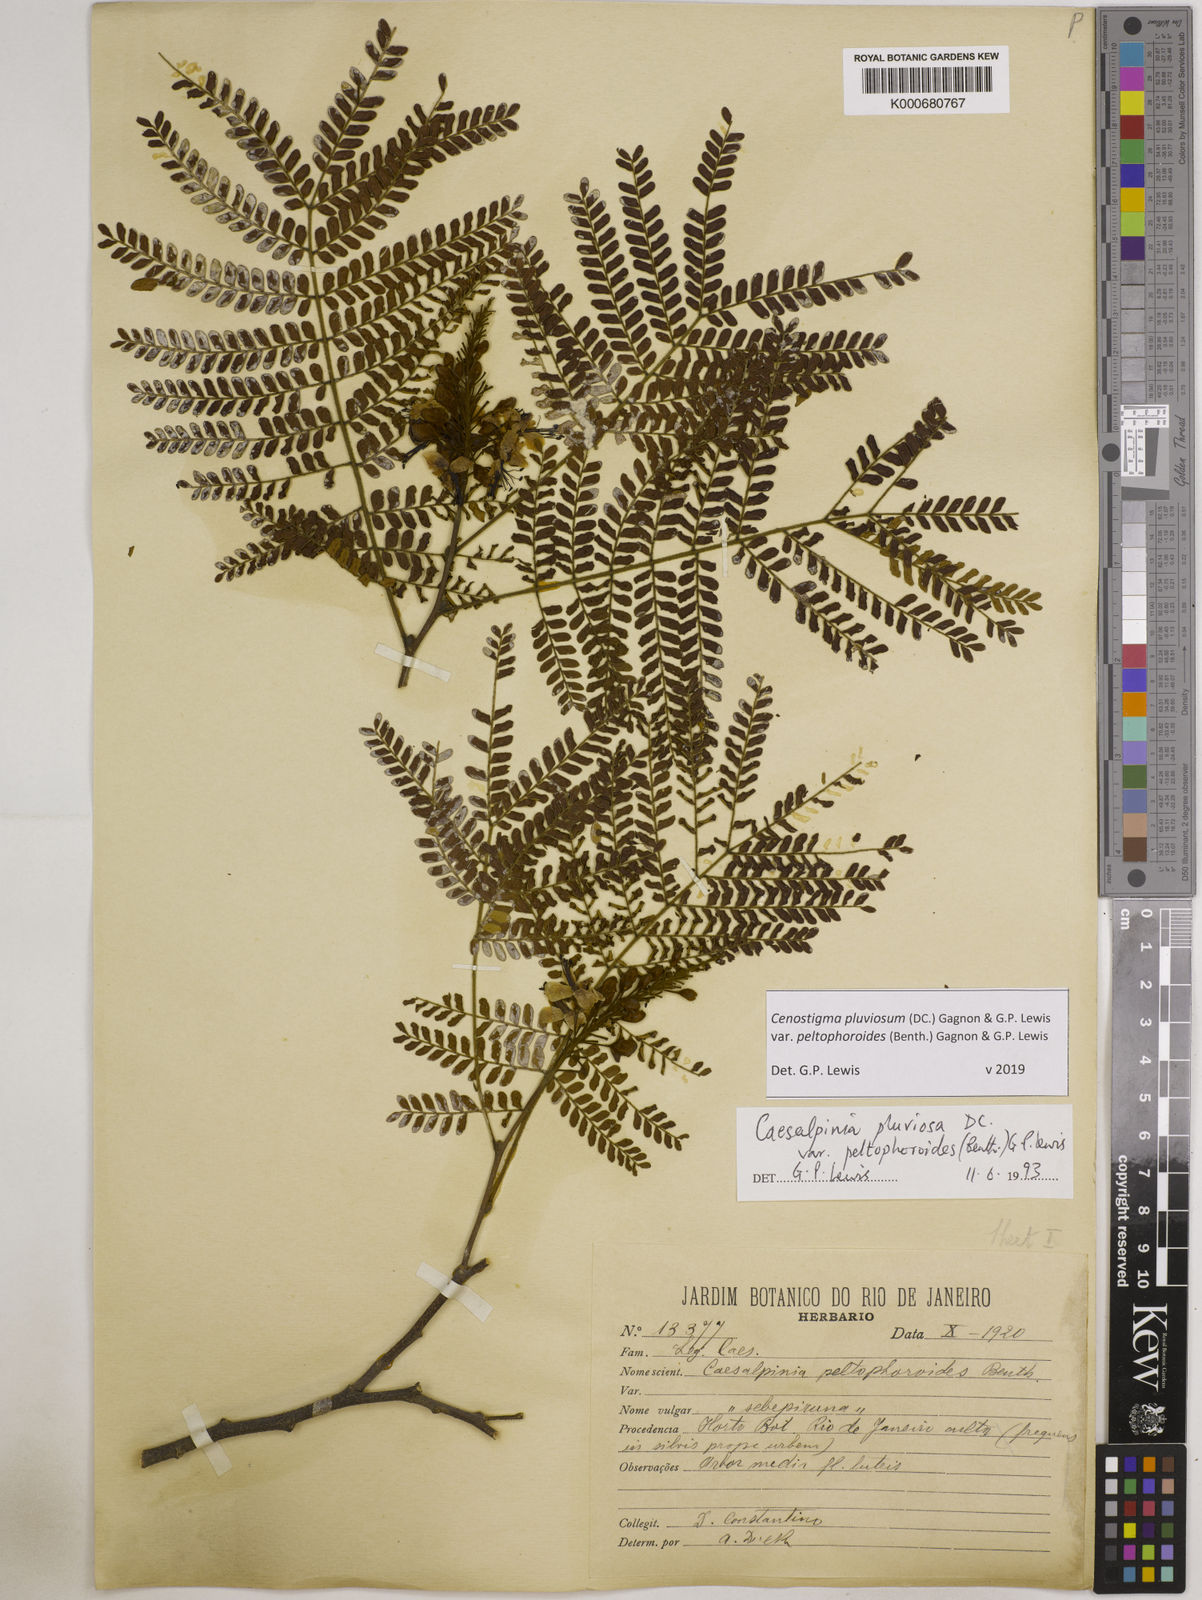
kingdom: Plantae
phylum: Tracheophyta
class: Magnoliopsida
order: Fabales
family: Fabaceae
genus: Cenostigma
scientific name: Cenostigma pluviosum
